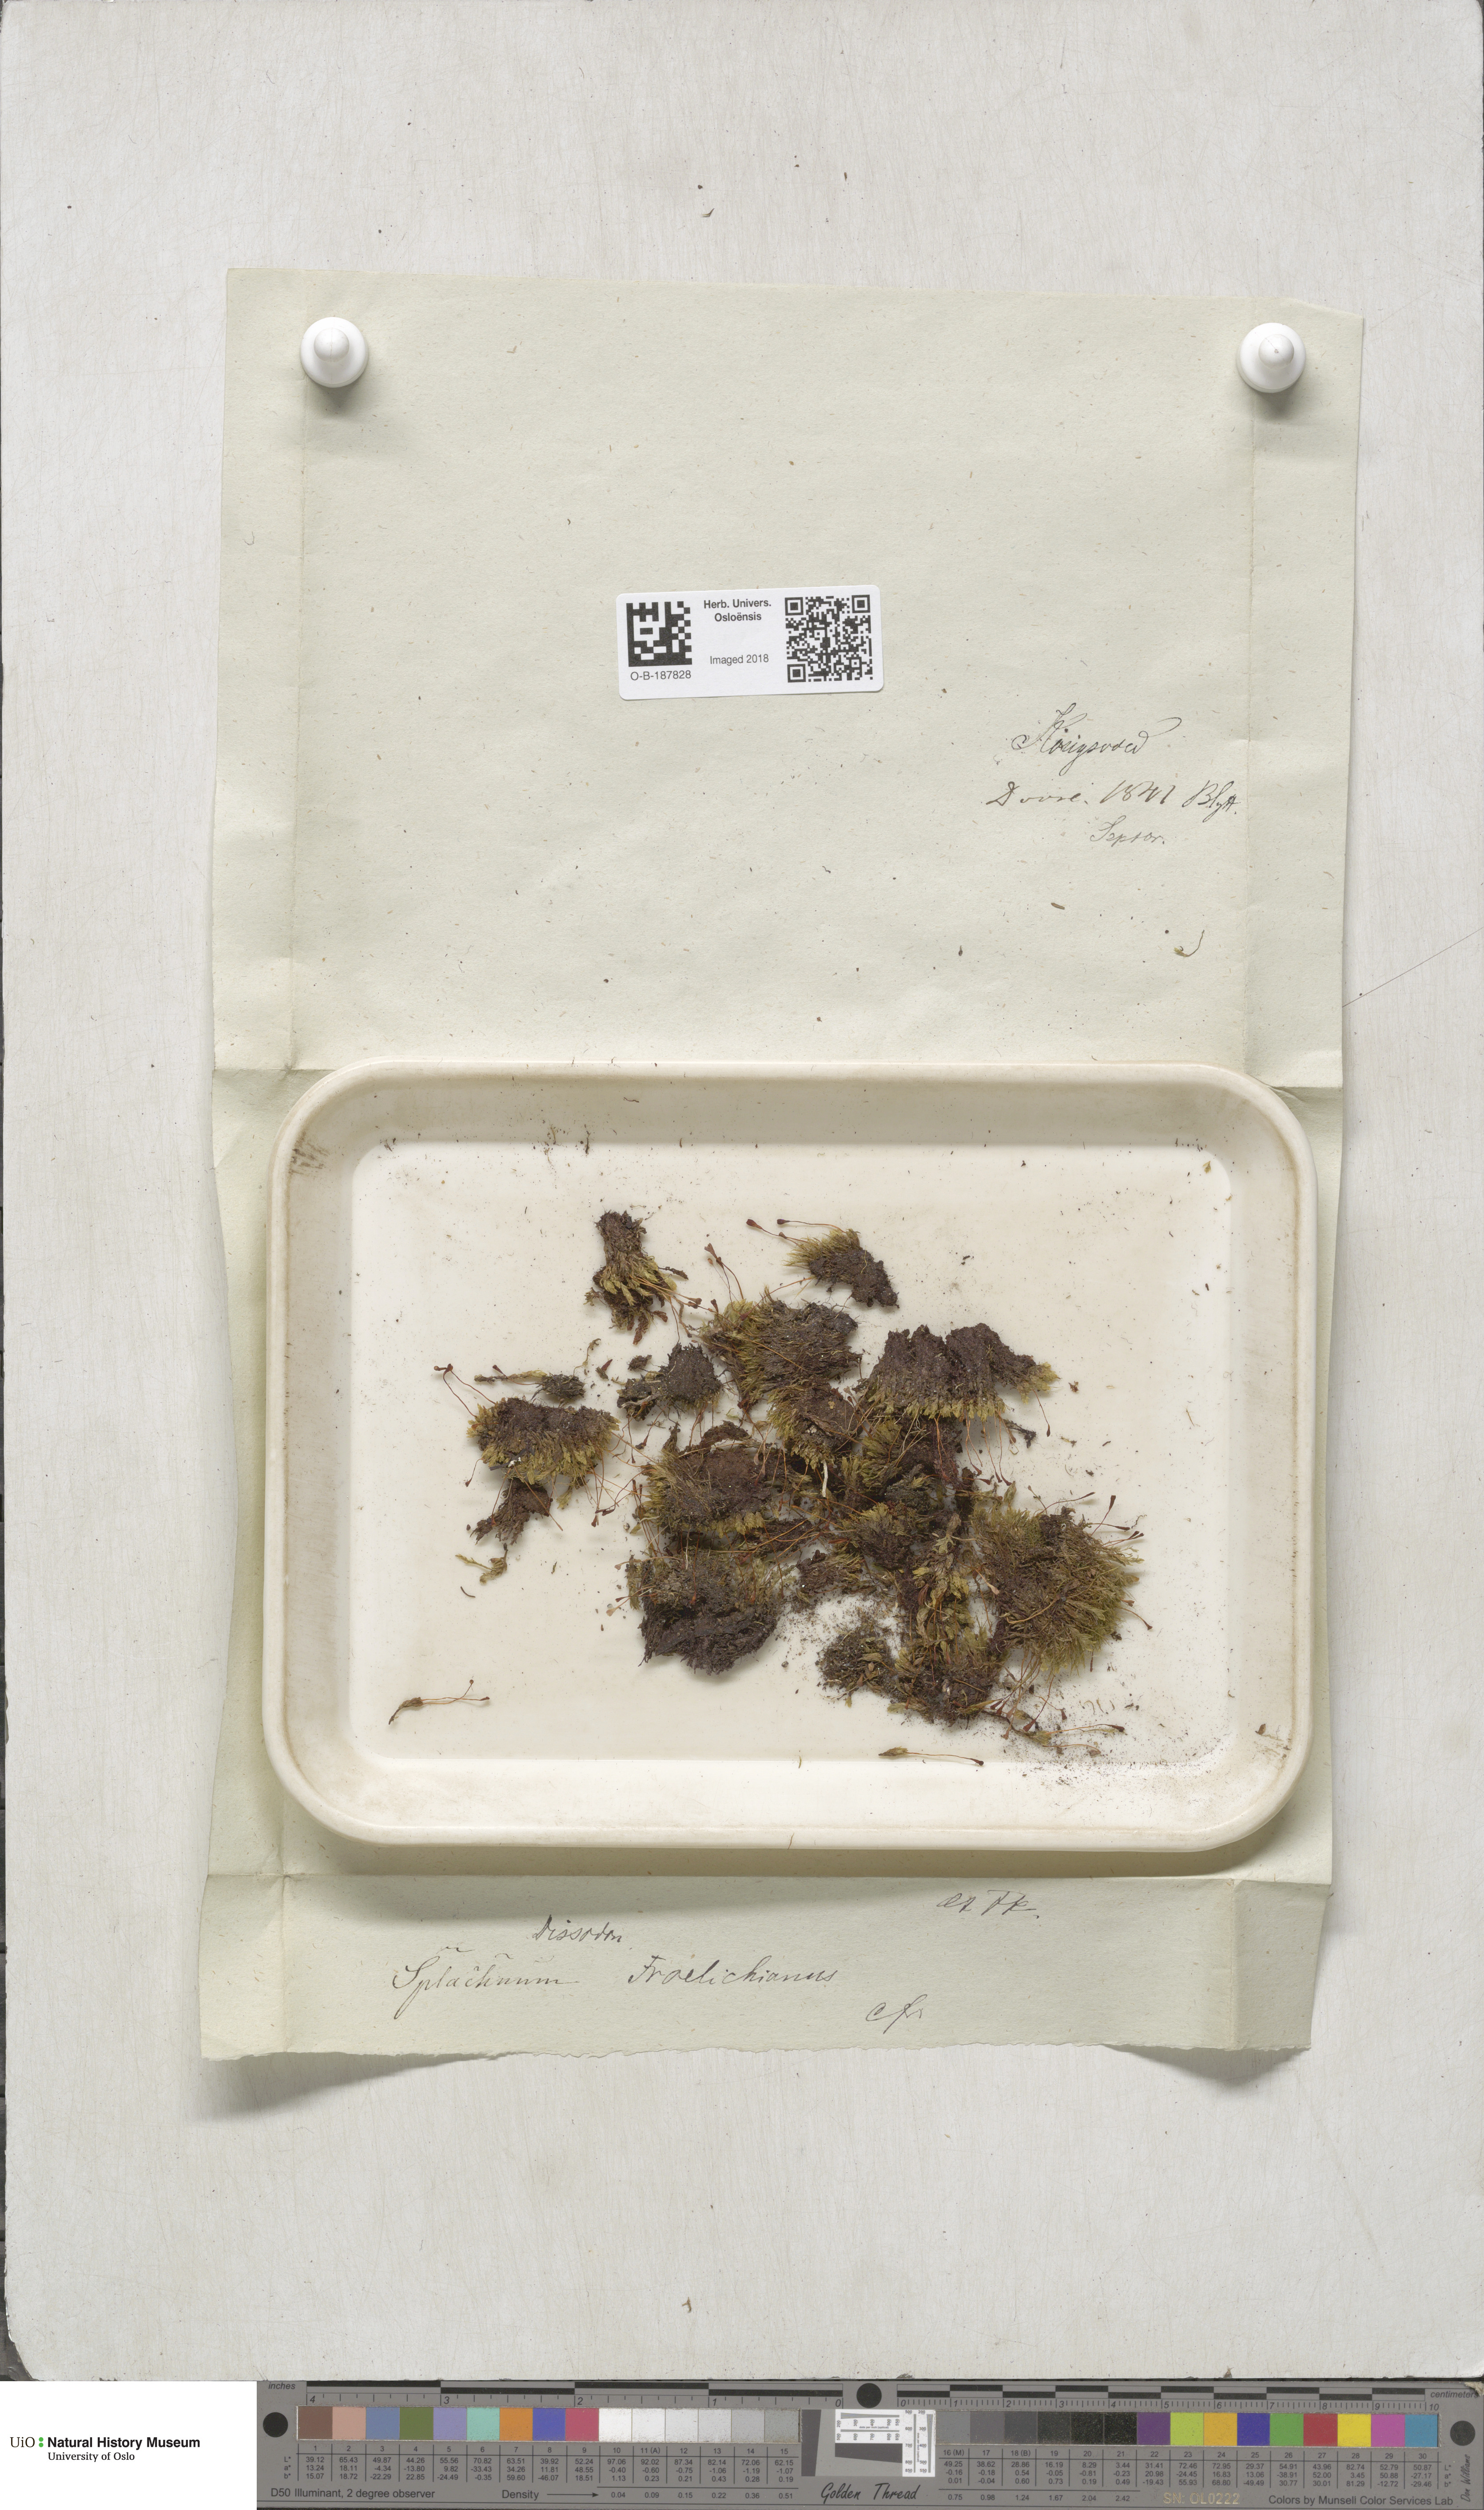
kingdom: Plantae
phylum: Bryophyta
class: Bryopsida
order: Splachnales
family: Splachnaceae
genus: Tayloria
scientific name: Tayloria froelichiana
